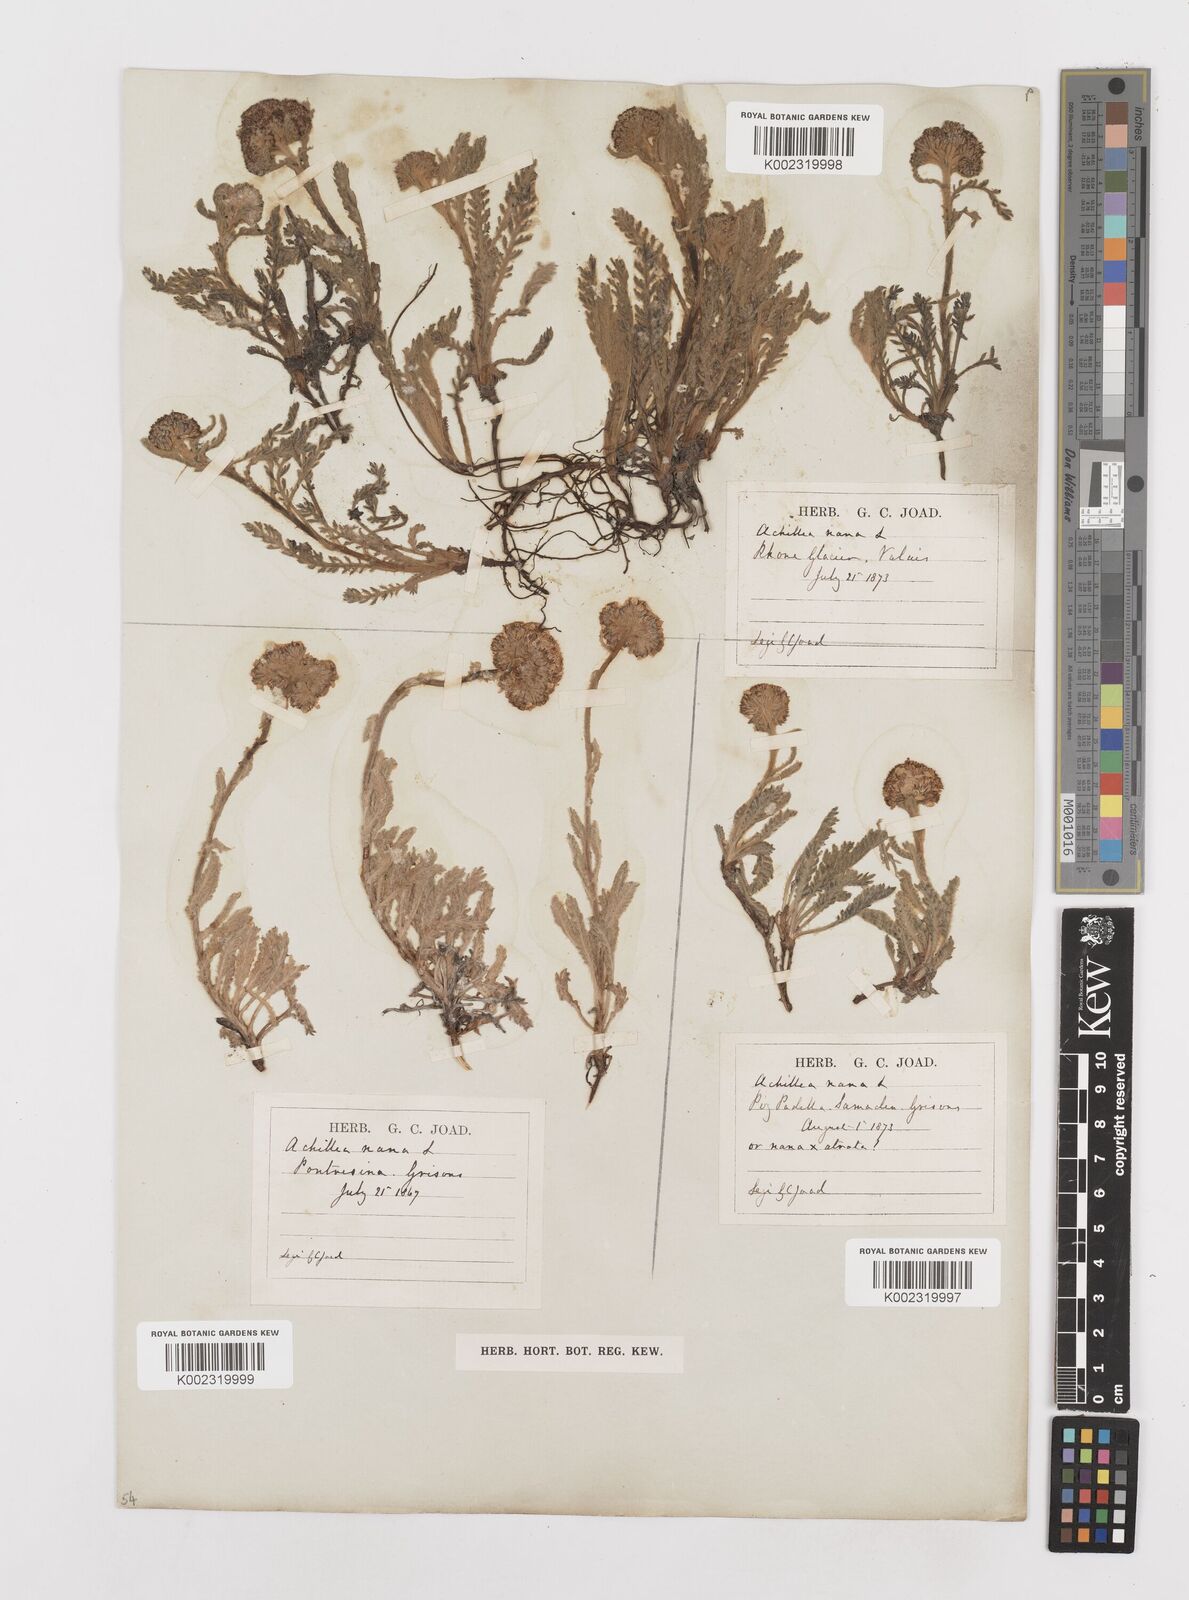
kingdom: Plantae
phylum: Tracheophyta
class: Magnoliopsida
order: Asterales
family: Asteraceae
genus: Achillea
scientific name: Achillea nana
